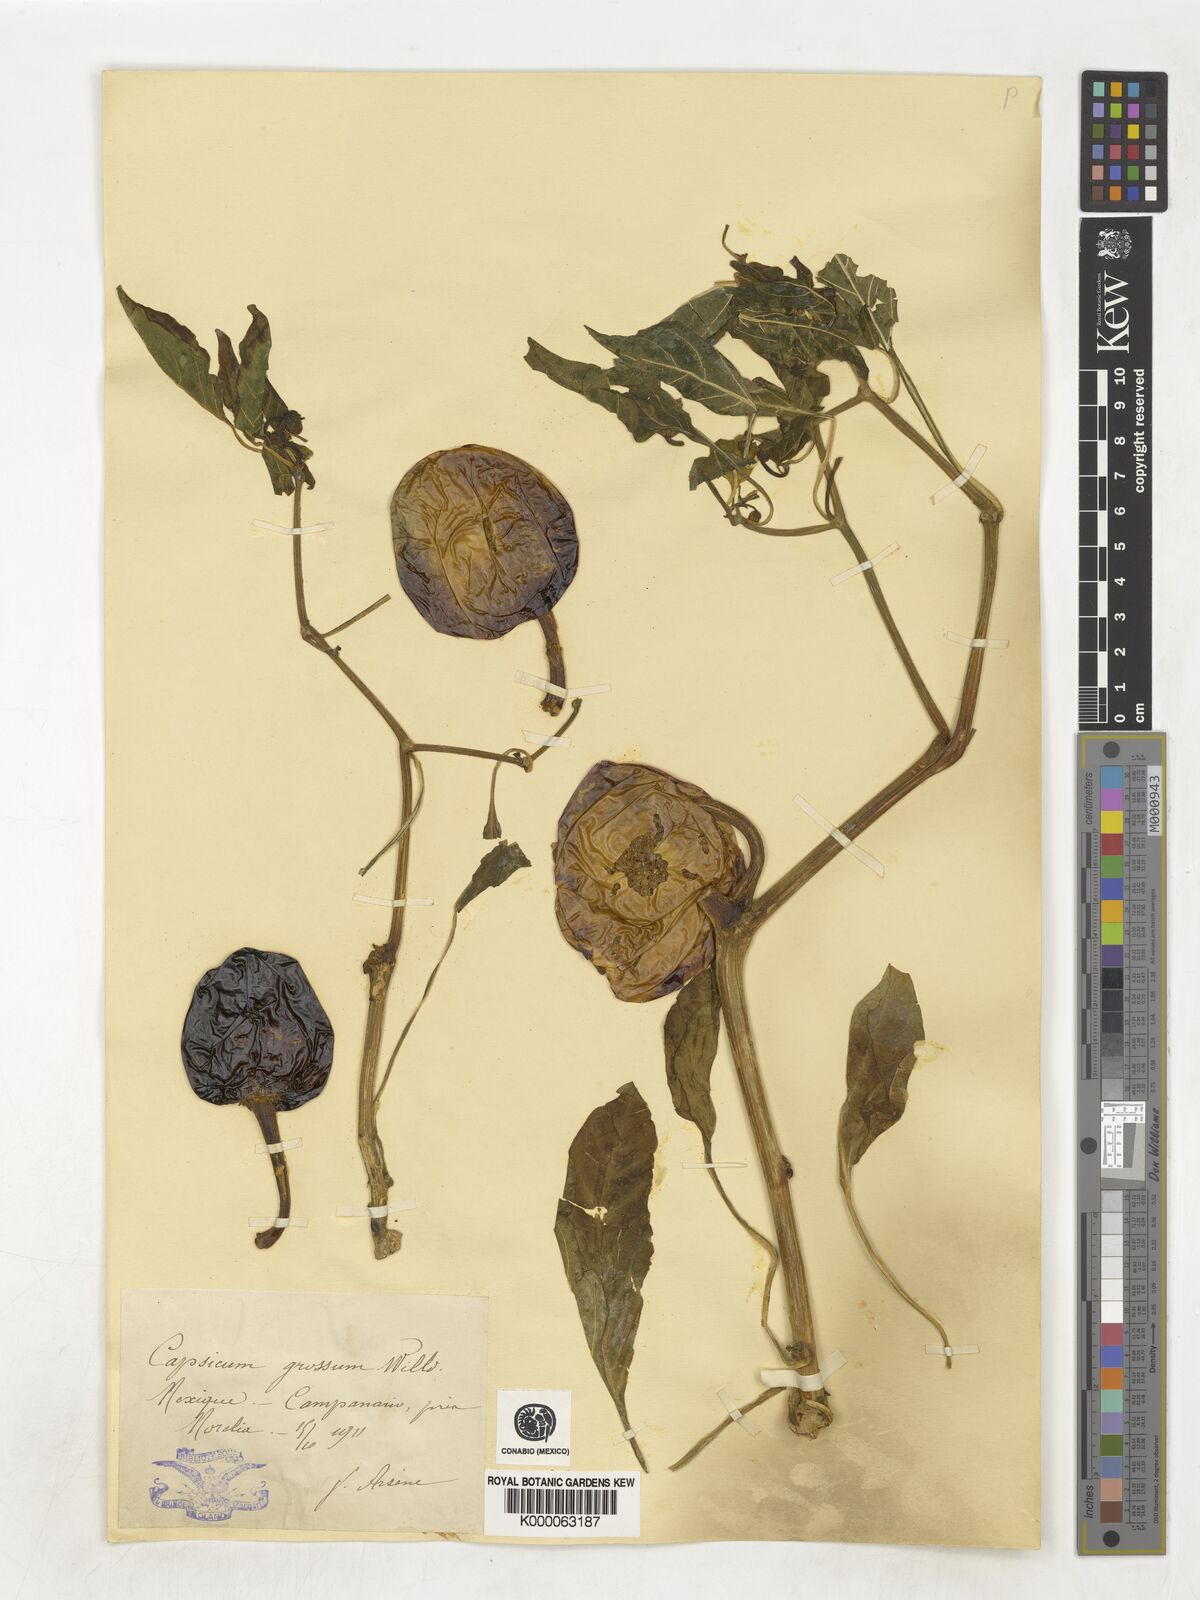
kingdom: Plantae
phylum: Tracheophyta
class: Magnoliopsida
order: Solanales
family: Solanaceae
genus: Capsicum
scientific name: Capsicum
